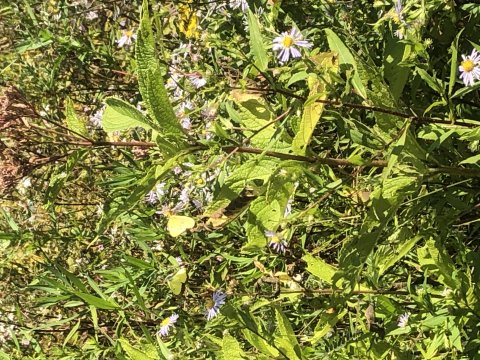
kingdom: Animalia
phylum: Arthropoda
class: Insecta
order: Lepidoptera
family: Pieridae
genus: Colias
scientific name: Colias philodice
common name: Clouded Sulphur
